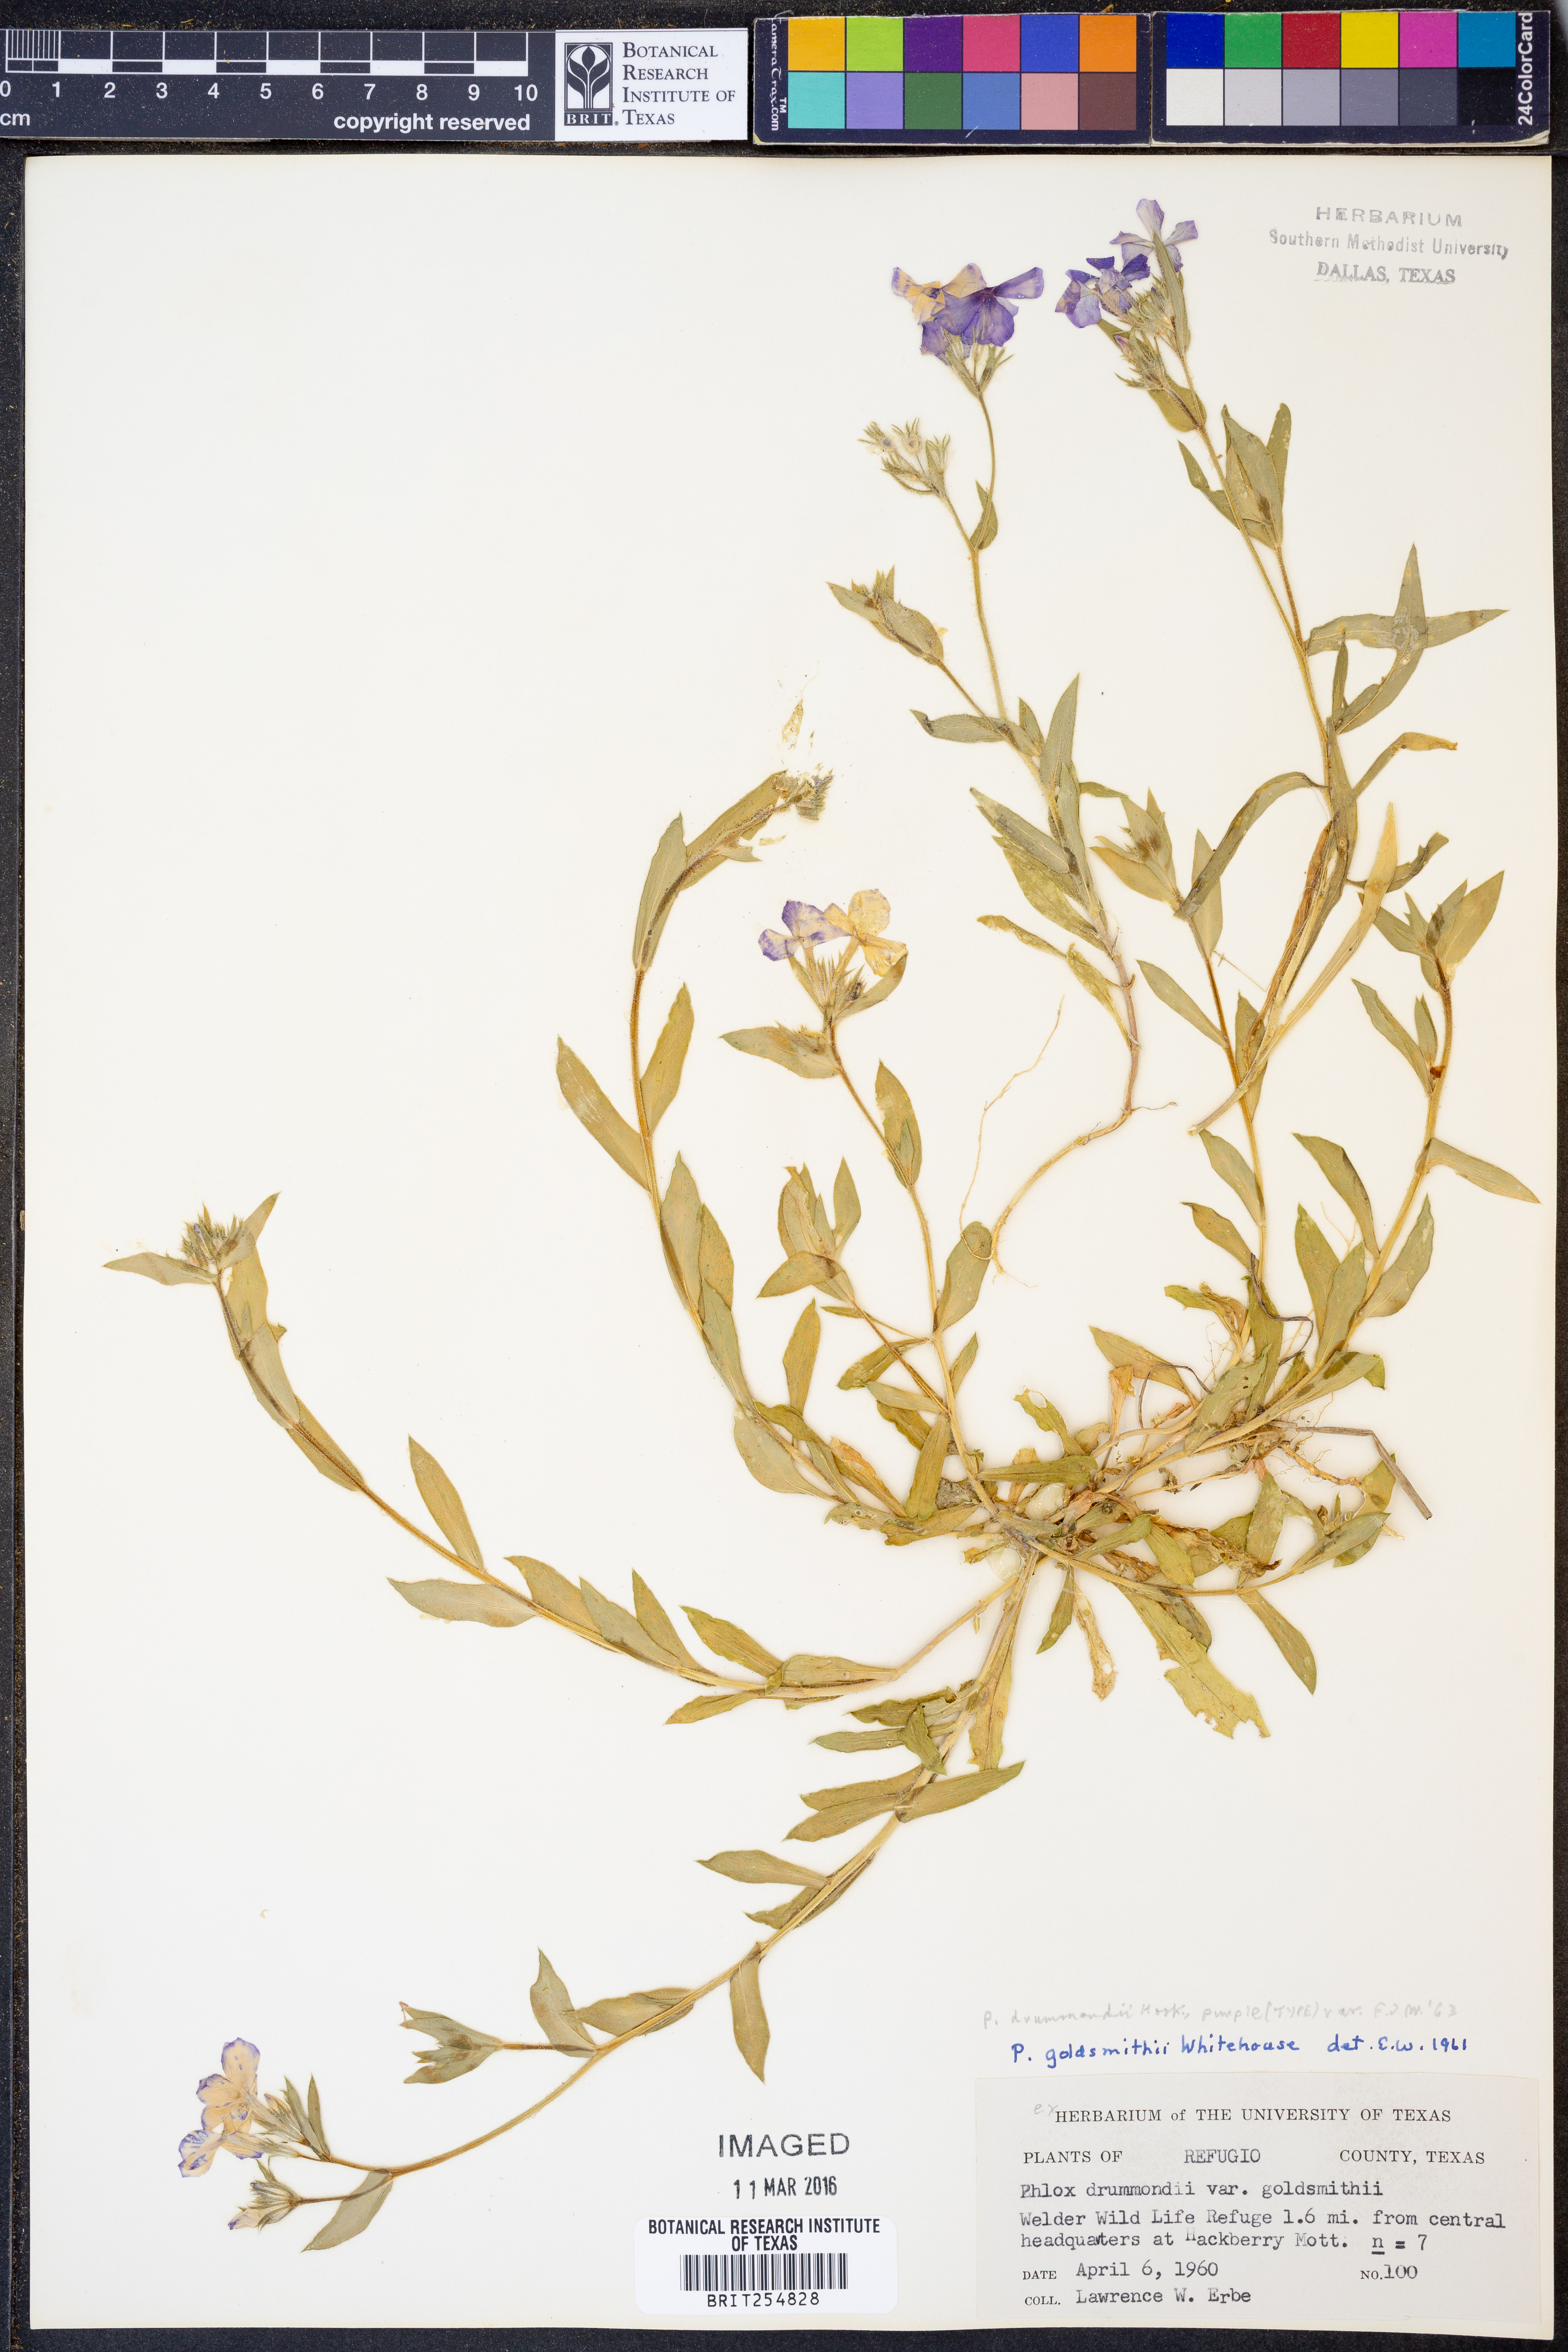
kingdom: Plantae
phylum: Tracheophyta
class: Magnoliopsida
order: Ericales
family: Polemoniaceae
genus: Phlox
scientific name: Phlox drummondii
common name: Drummond's phlox
